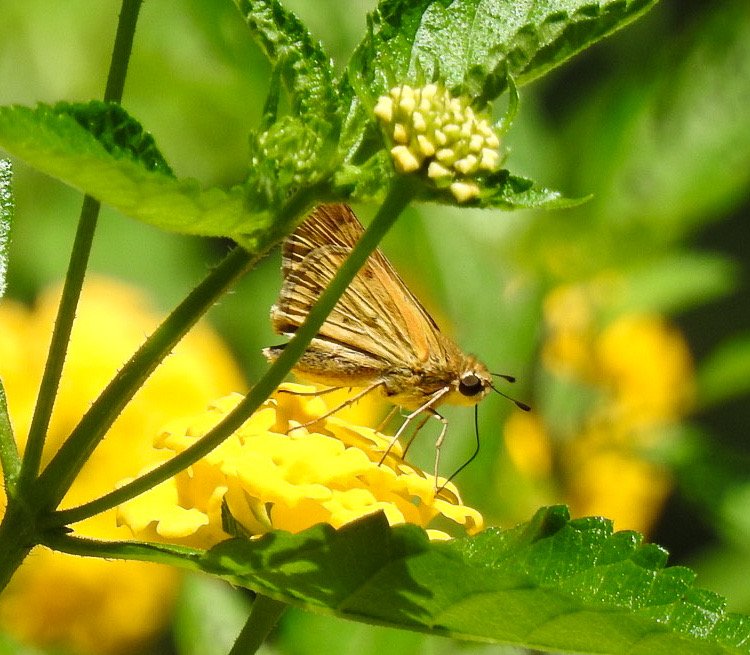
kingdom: Animalia
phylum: Arthropoda
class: Insecta
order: Lepidoptera
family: Hesperiidae
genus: Hylephila
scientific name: Hylephila phyleus
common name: Fiery Skipper
